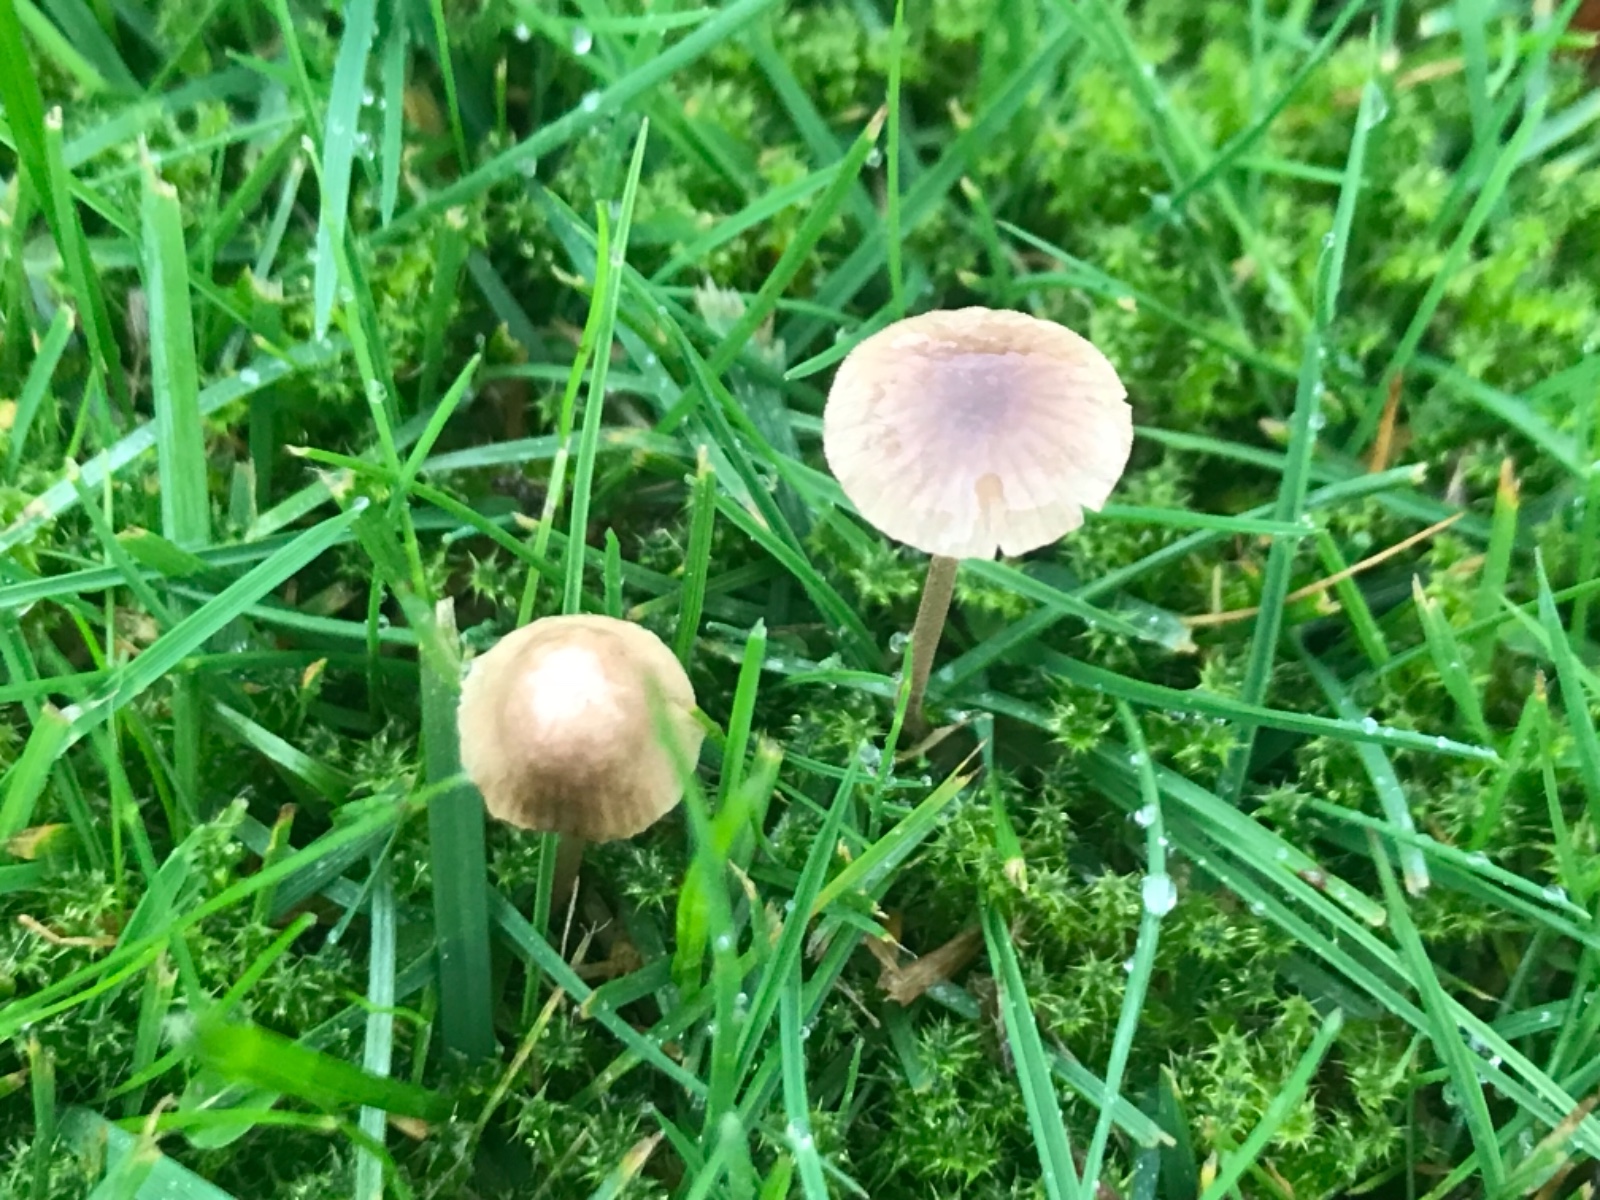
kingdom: Fungi
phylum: Basidiomycota
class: Agaricomycetes
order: Agaricales
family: Mycenaceae
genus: Mycena
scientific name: Mycena olivaceomarginata
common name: brunægget huesvamp
